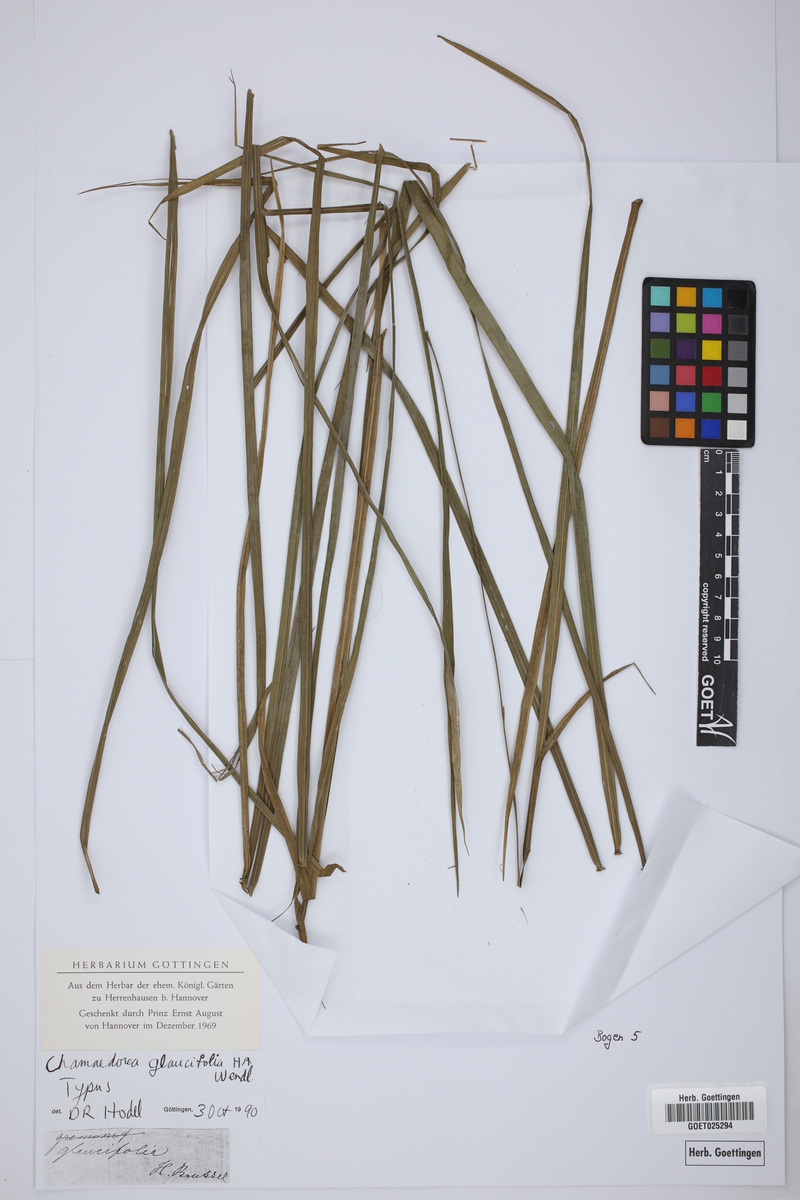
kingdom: Plantae
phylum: Tracheophyta
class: Liliopsida
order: Arecales
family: Arecaceae
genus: Chamaedorea
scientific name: Chamaedorea glaucifolia
